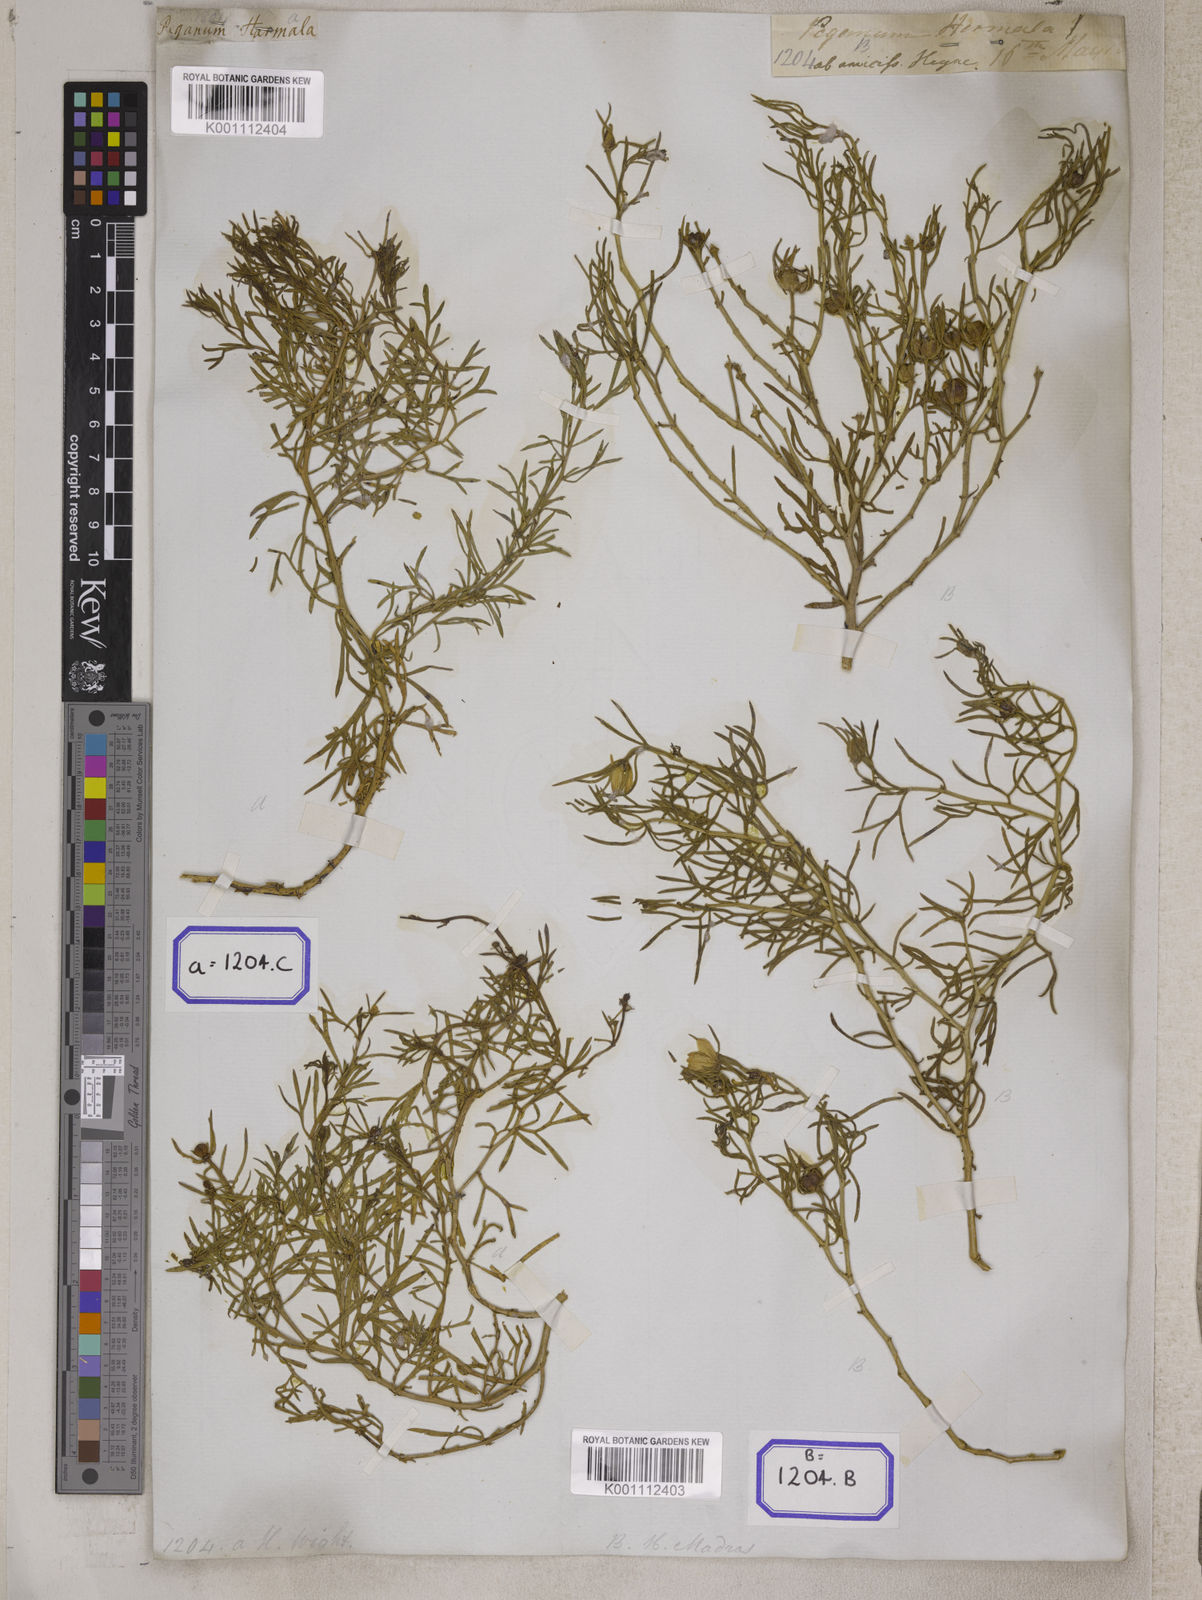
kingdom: Plantae
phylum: Tracheophyta
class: Magnoliopsida
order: Sapindales
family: Tetradiclidaceae
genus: Peganum
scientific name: Peganum harmala
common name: Harmal peganum
